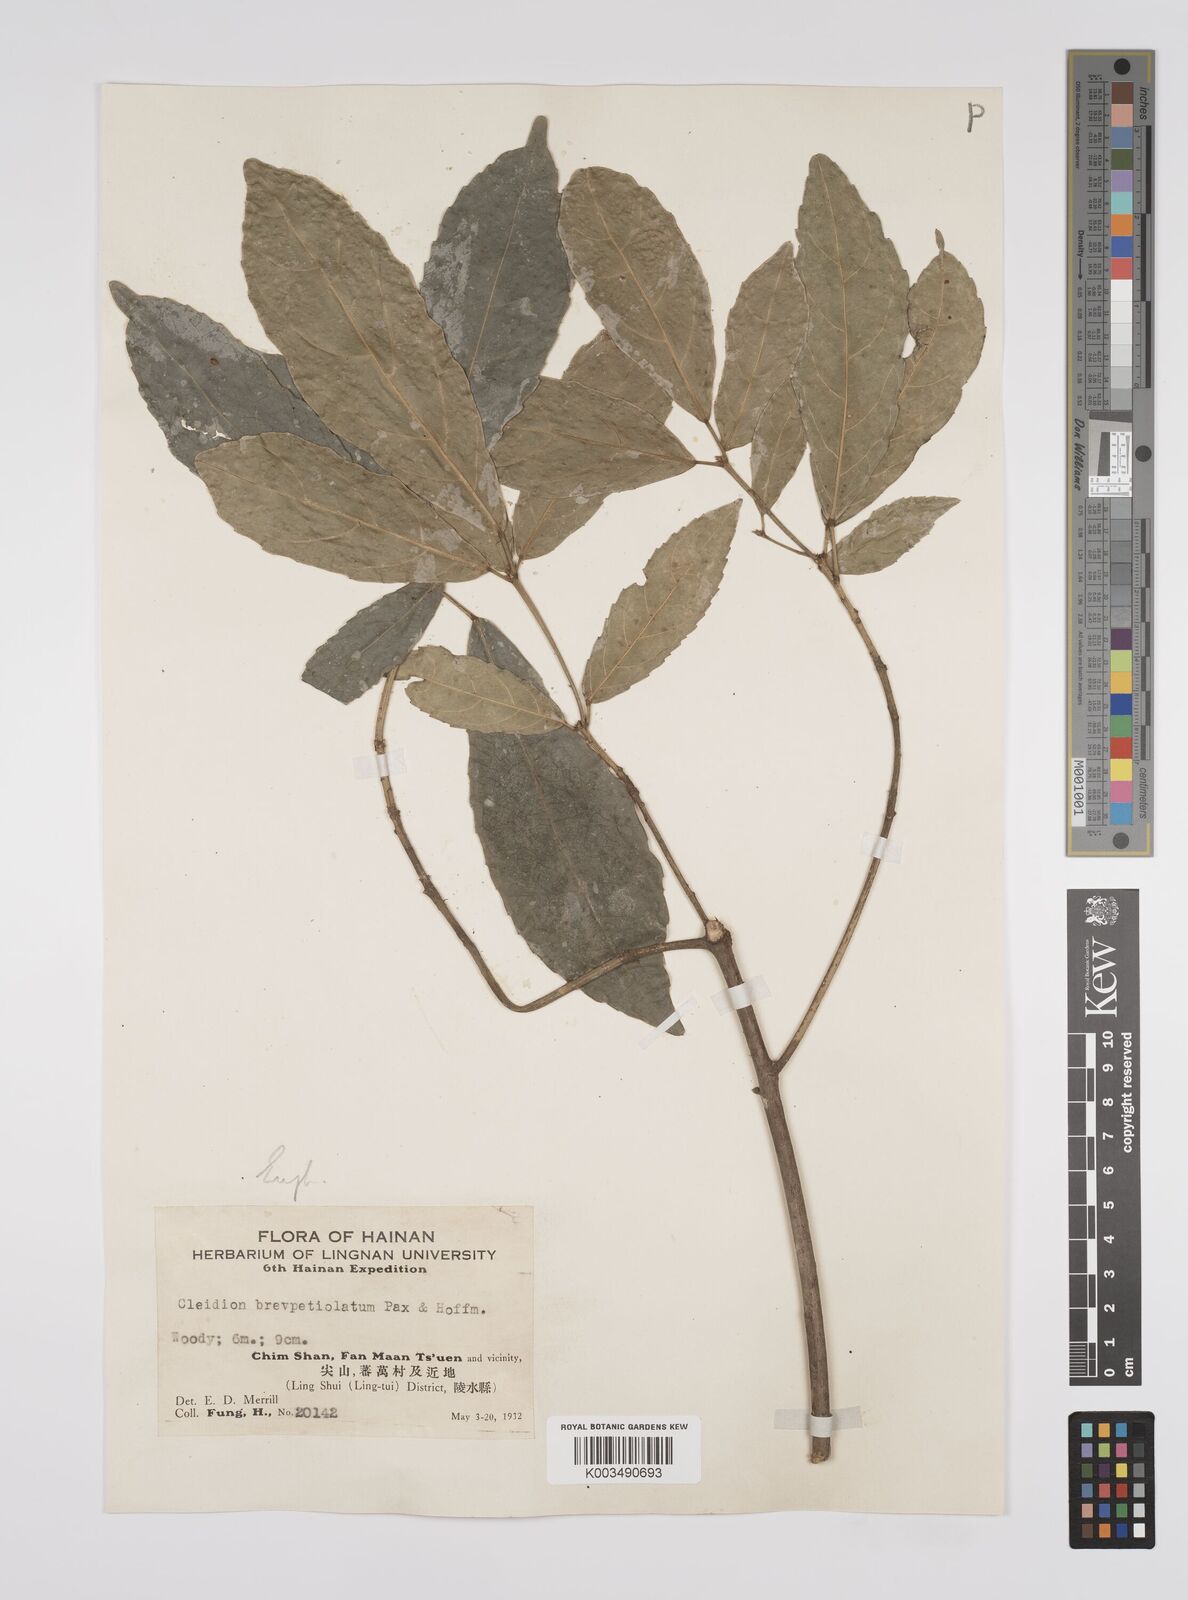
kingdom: Plantae
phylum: Tracheophyta
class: Magnoliopsida
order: Malpighiales
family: Euphorbiaceae
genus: Cleidion
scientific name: Cleidion brevipetiolatum
